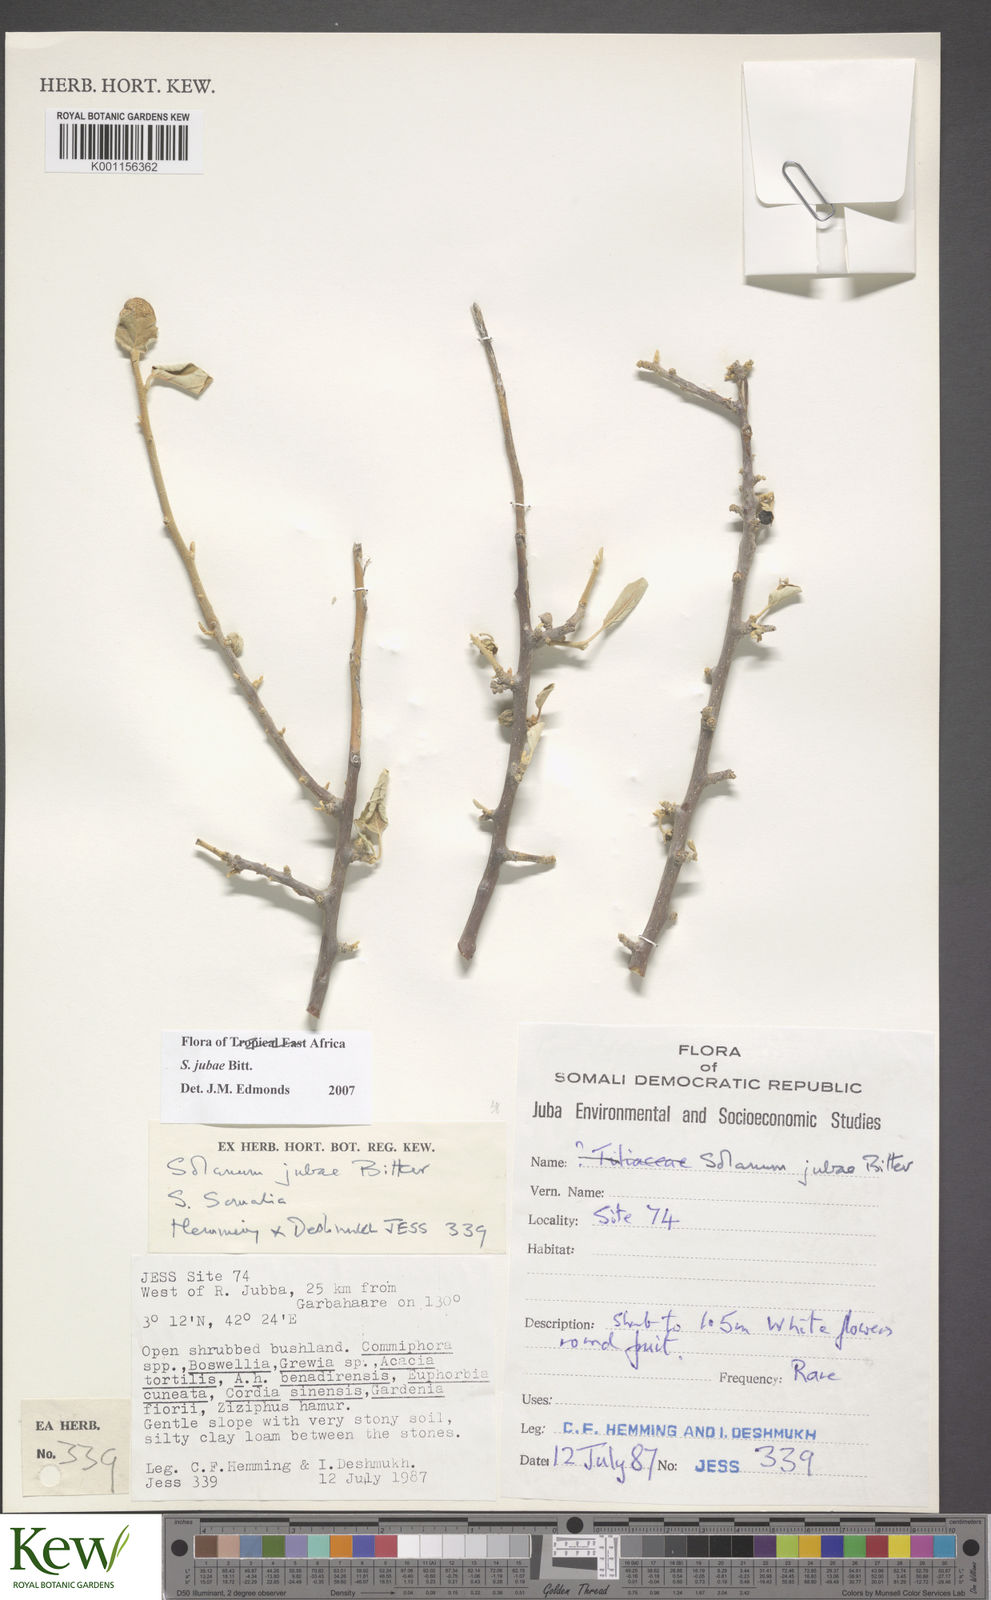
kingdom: Plantae
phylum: Tracheophyta
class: Magnoliopsida
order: Solanales
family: Solanaceae
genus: Solanum
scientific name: Solanum jubae
